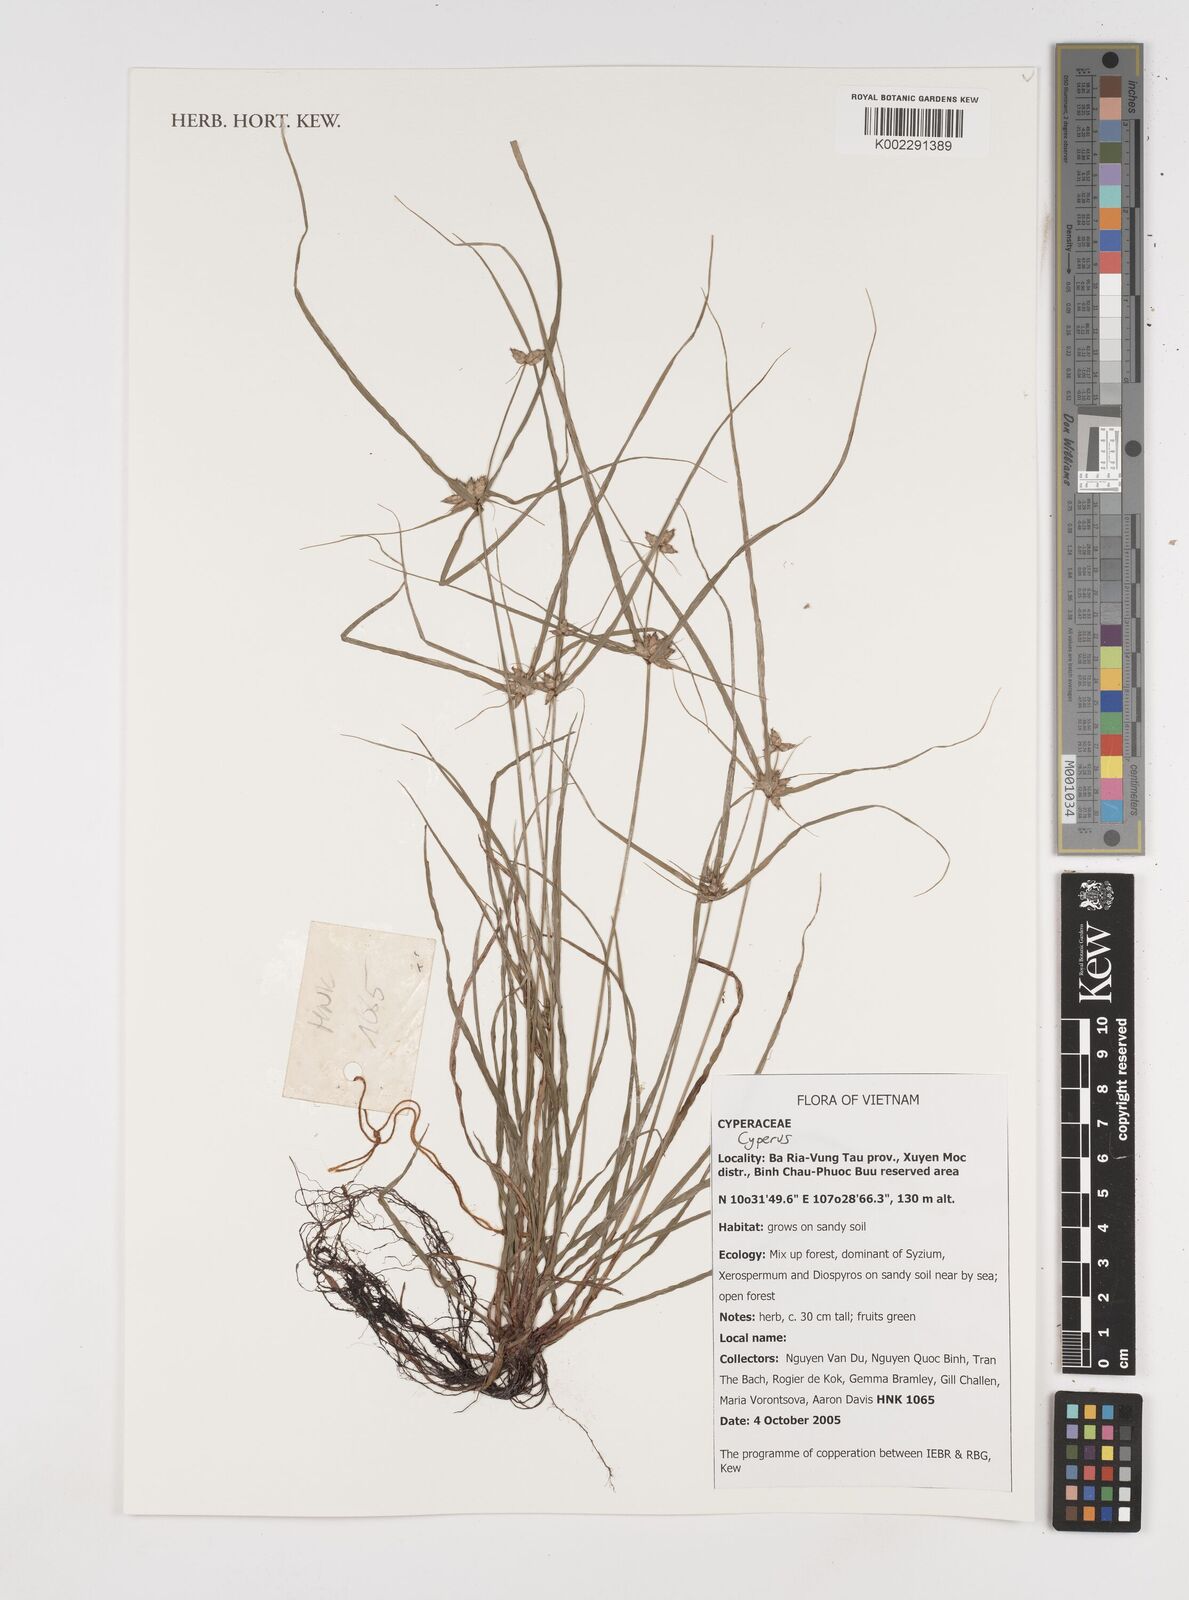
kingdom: Plantae
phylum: Tracheophyta
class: Liliopsida
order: Poales
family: Cyperaceae
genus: Cyperus
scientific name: Cyperus
